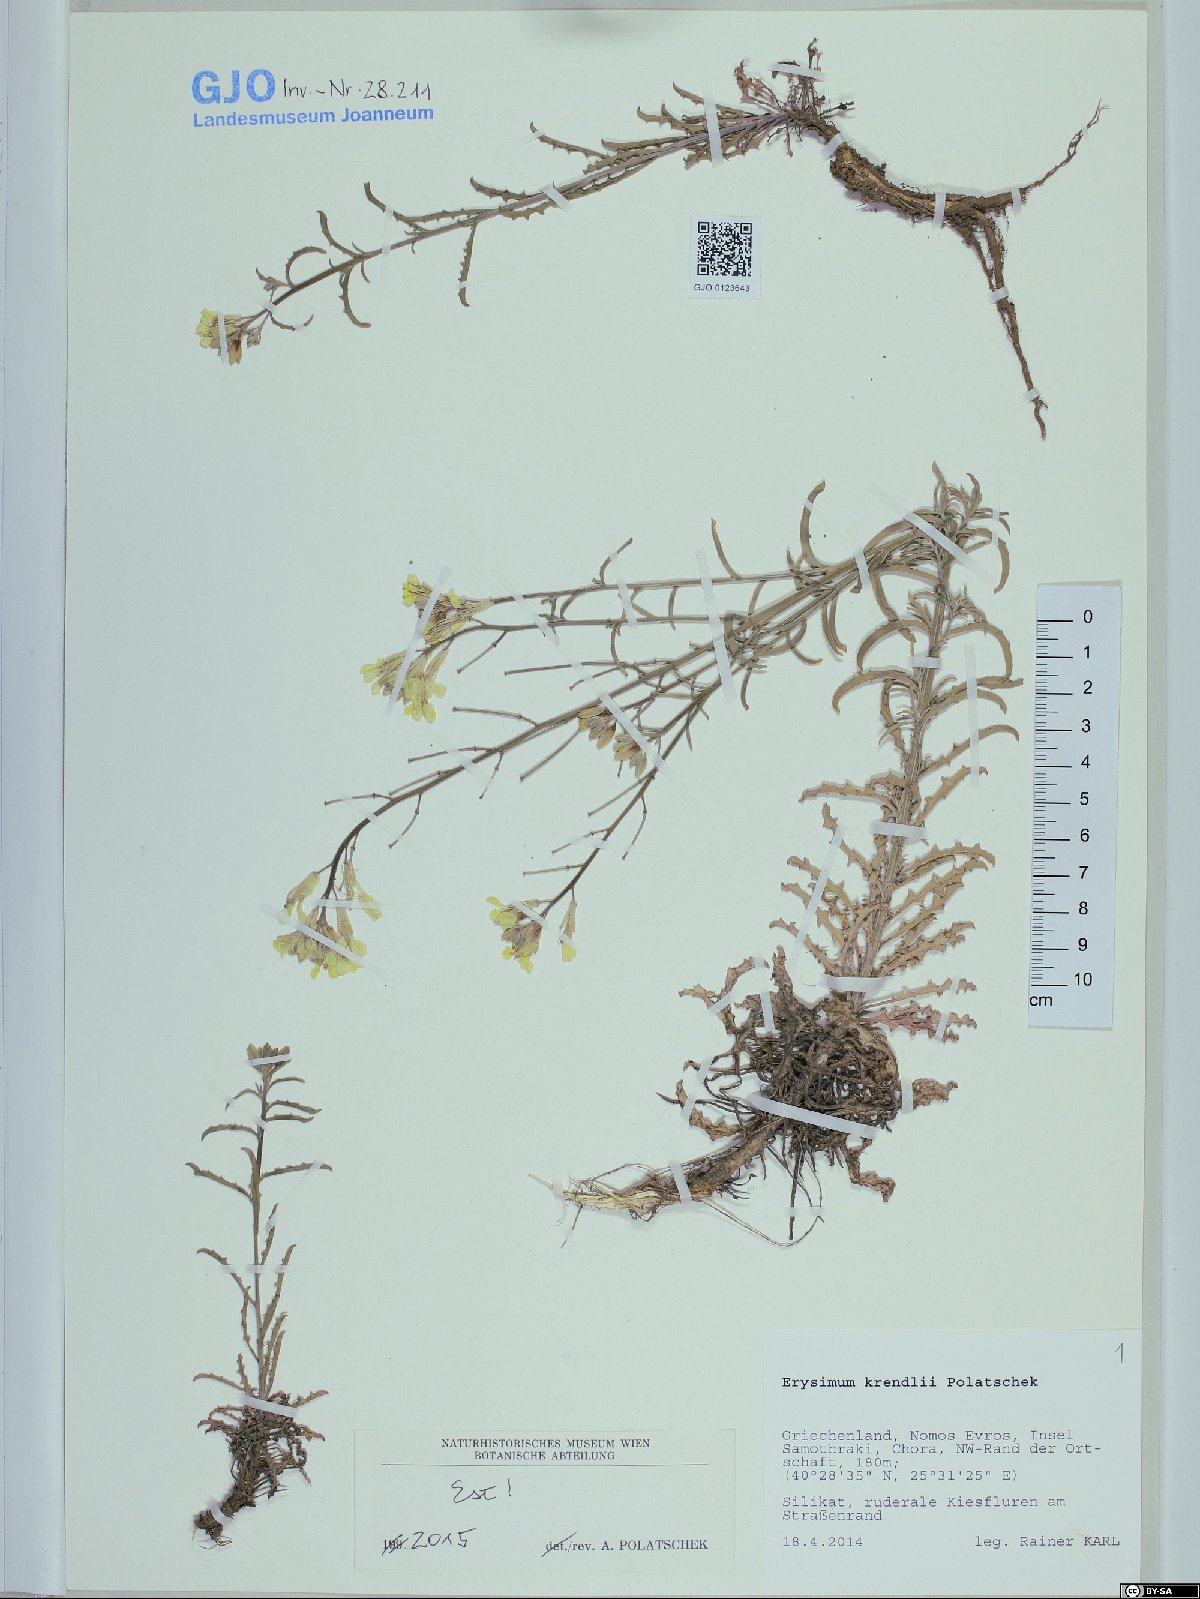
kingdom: Plantae
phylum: Tracheophyta
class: Magnoliopsida
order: Brassicales
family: Brassicaceae
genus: Erysimum
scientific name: Erysimum kuemmerlei
